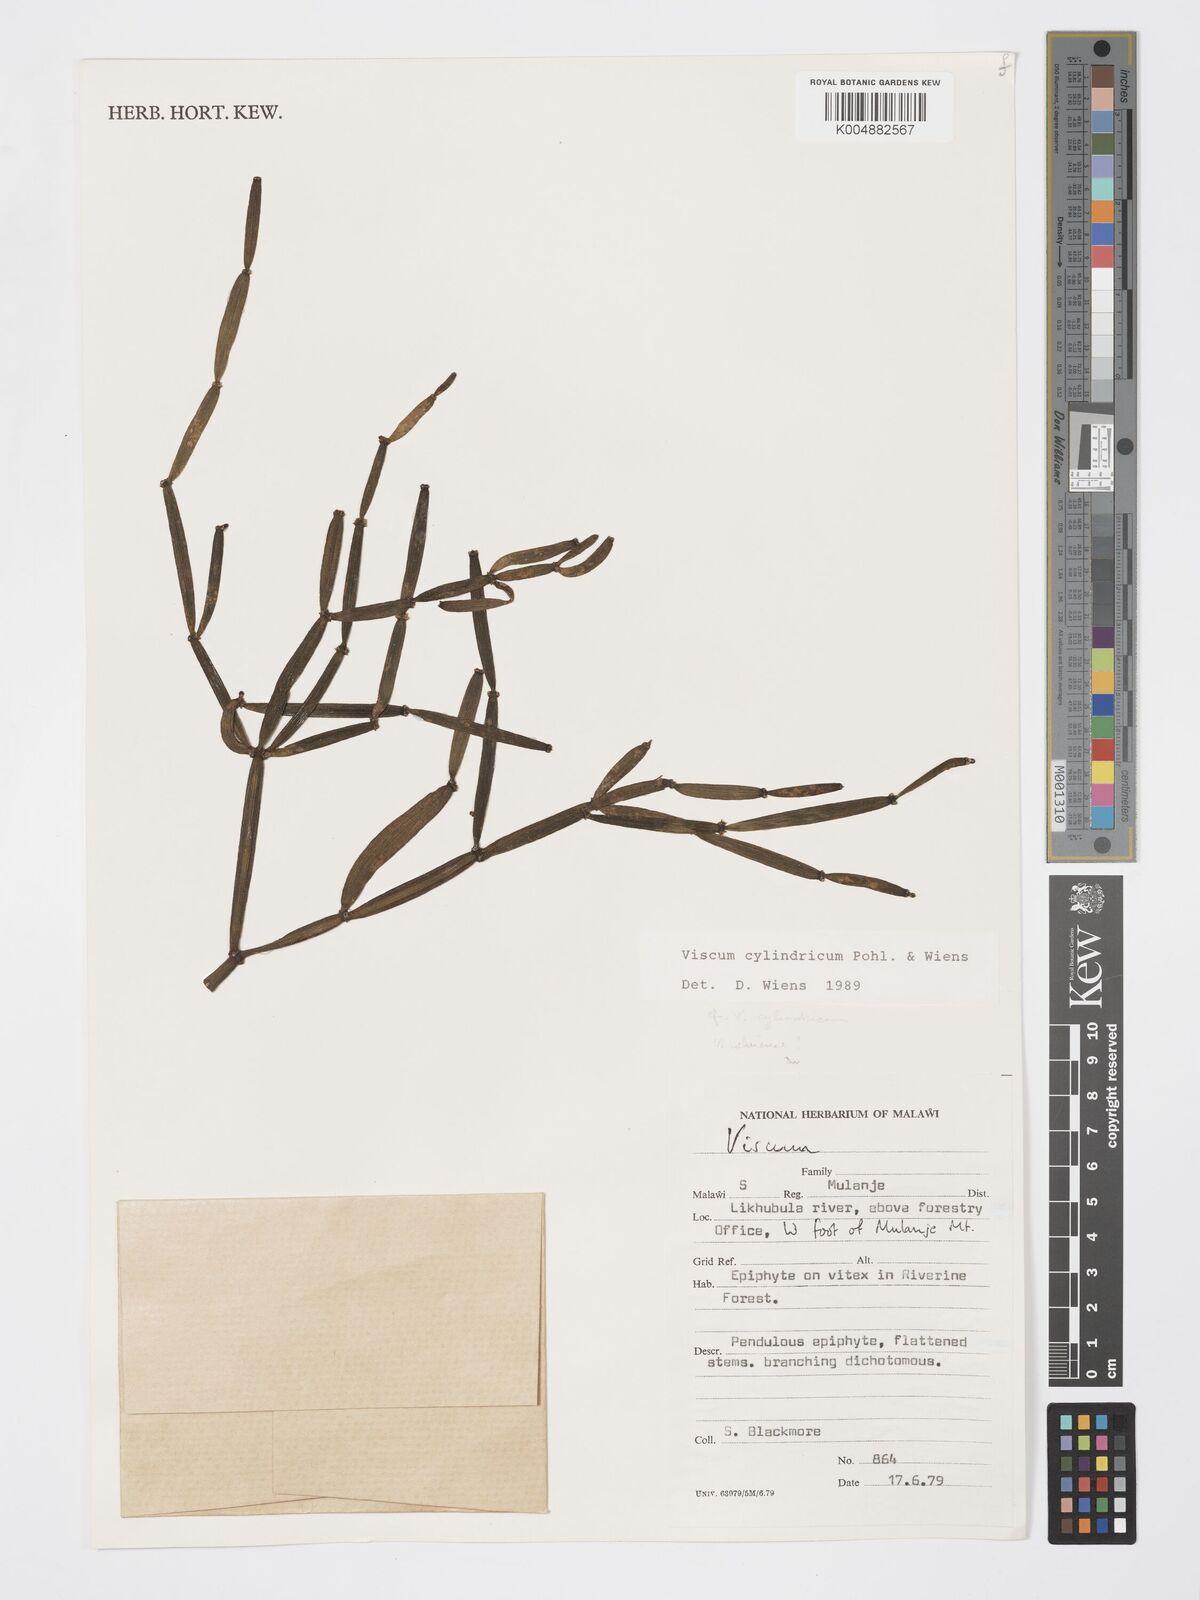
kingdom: Plantae
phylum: Tracheophyta
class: Magnoliopsida
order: Santalales
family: Viscaceae
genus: Viscum
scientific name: Viscum cylindricum
